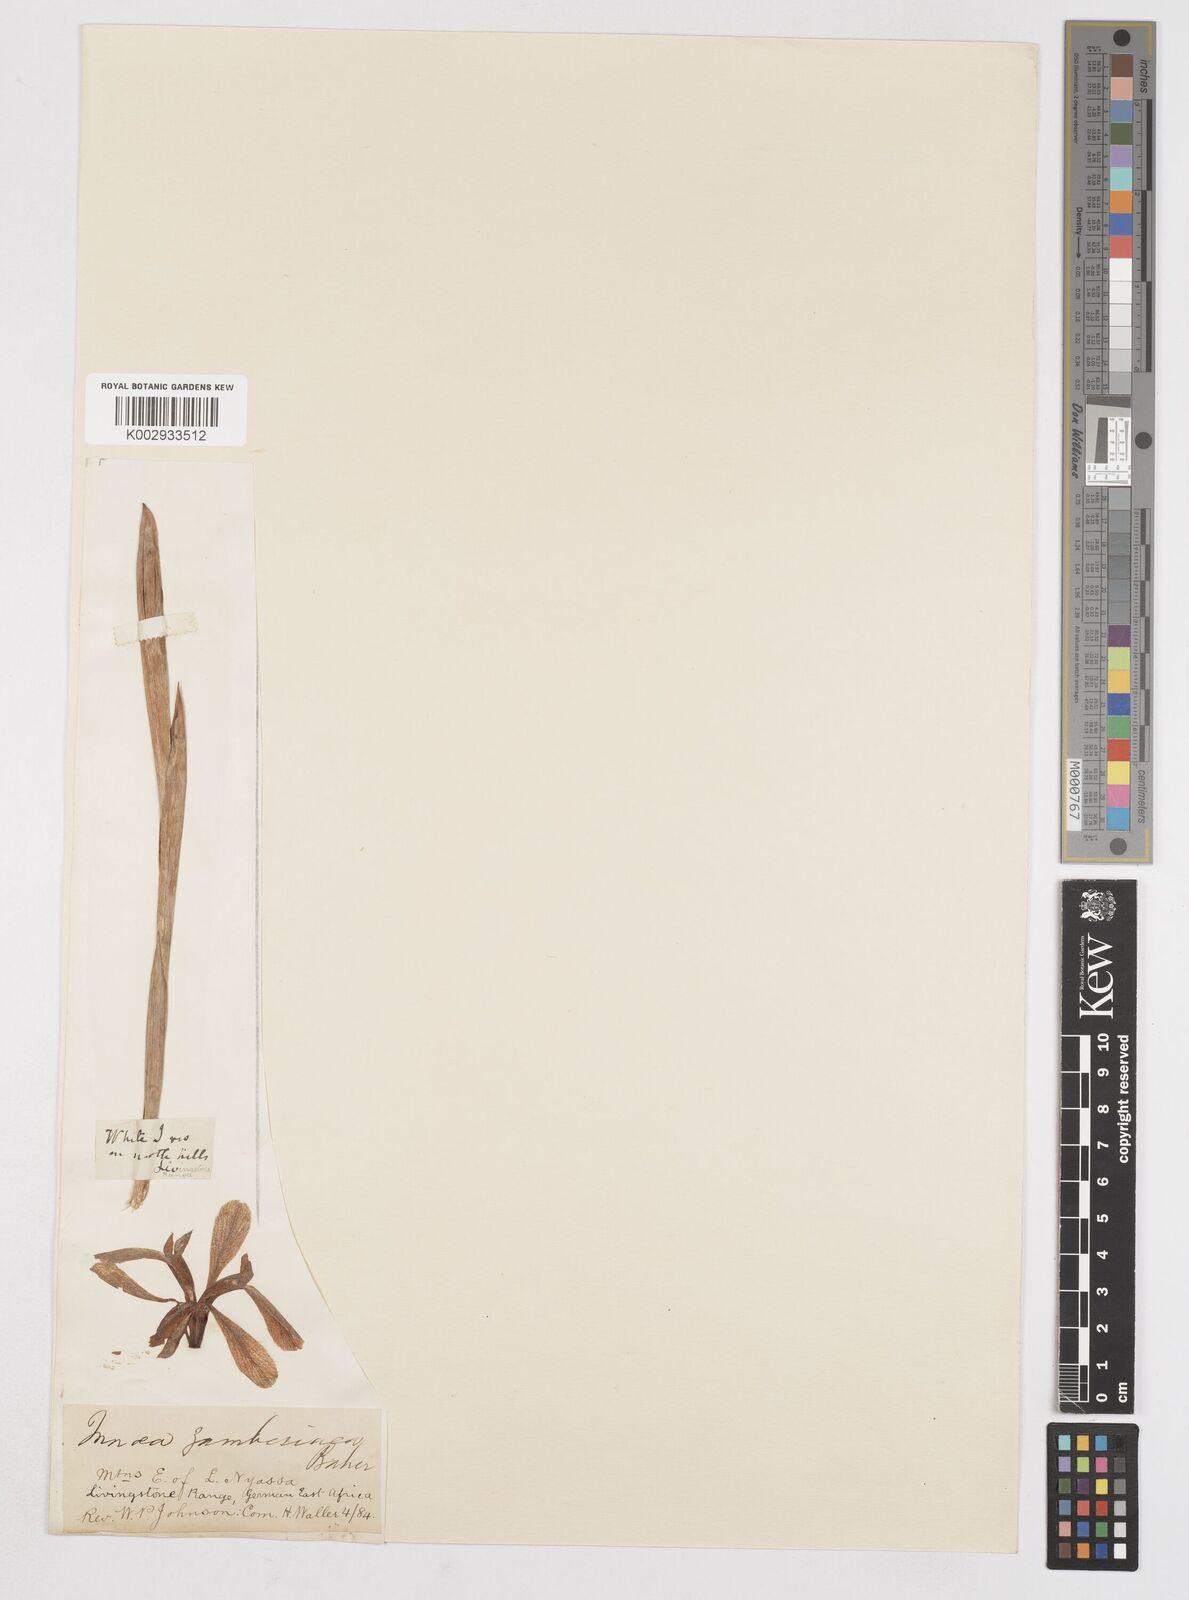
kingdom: Plantae
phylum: Tracheophyta
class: Liliopsida
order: Asparagales
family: Iridaceae
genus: Moraea
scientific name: Moraea schimperi
